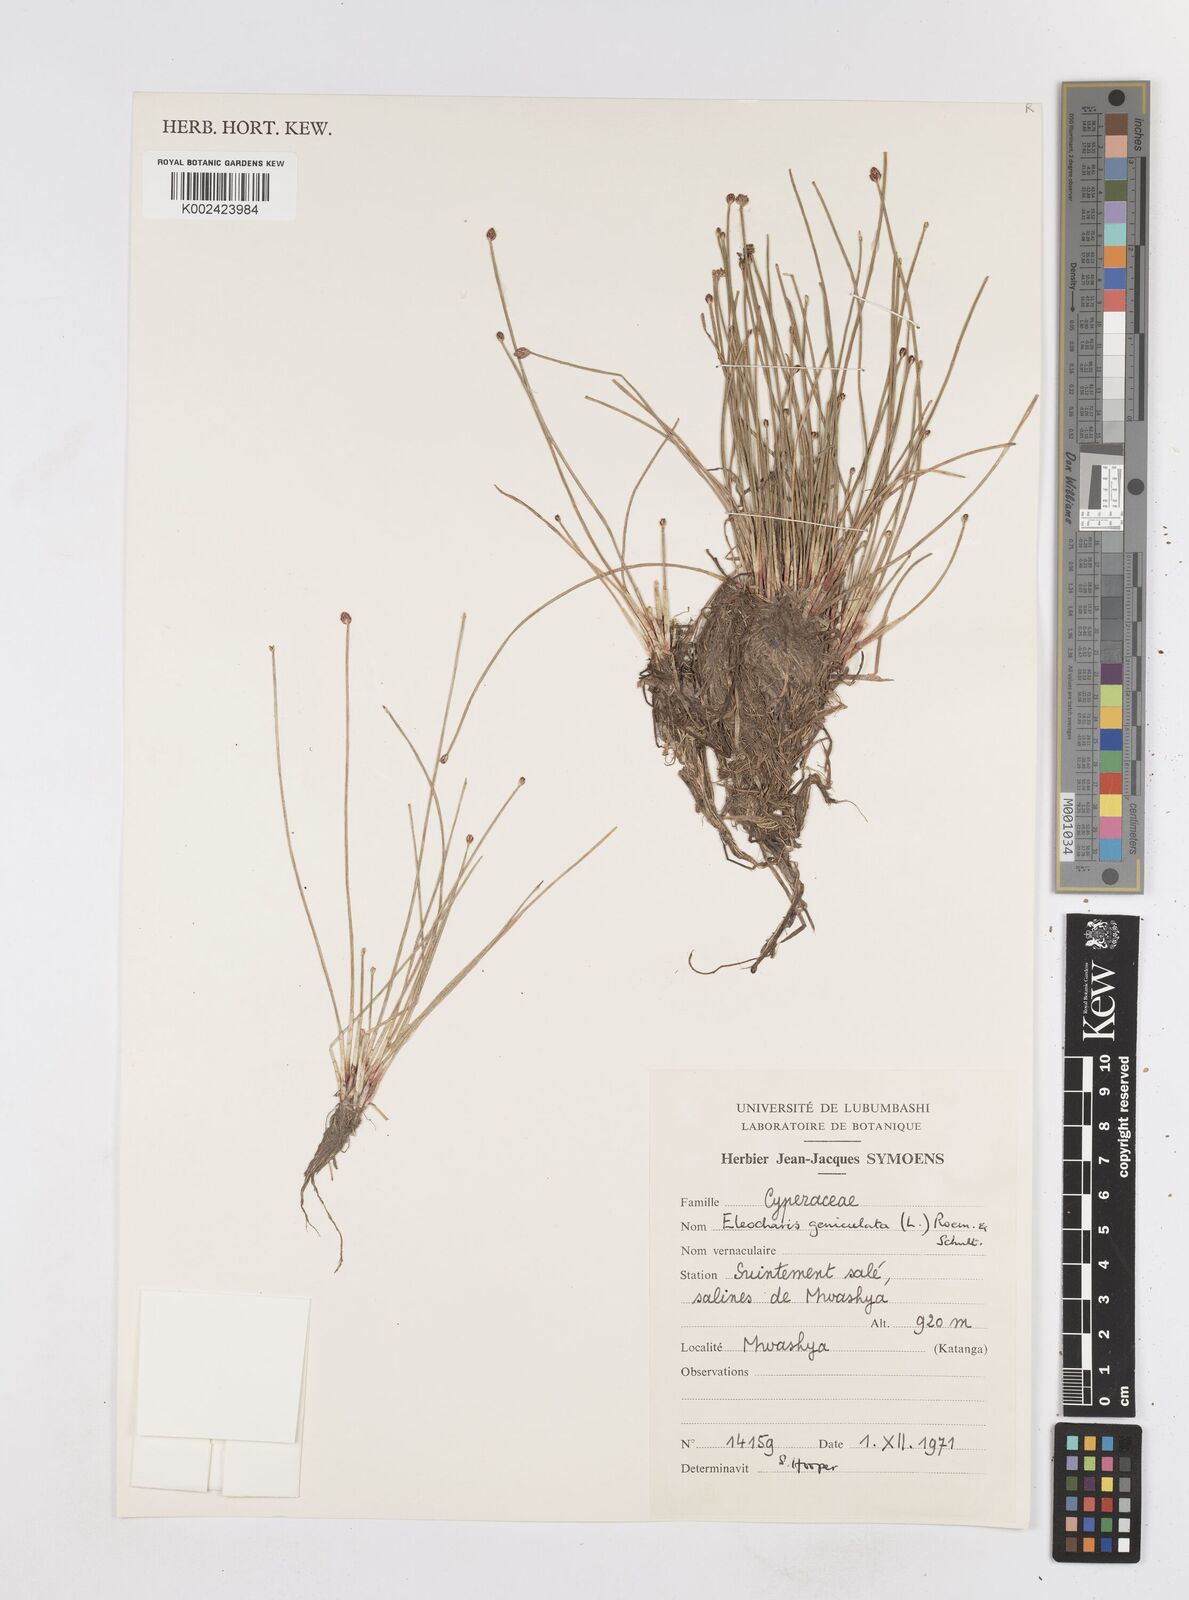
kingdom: Plantae
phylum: Tracheophyta
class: Liliopsida
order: Poales
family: Cyperaceae
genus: Eleocharis
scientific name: Eleocharis geniculata
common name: Canada spikesedge
